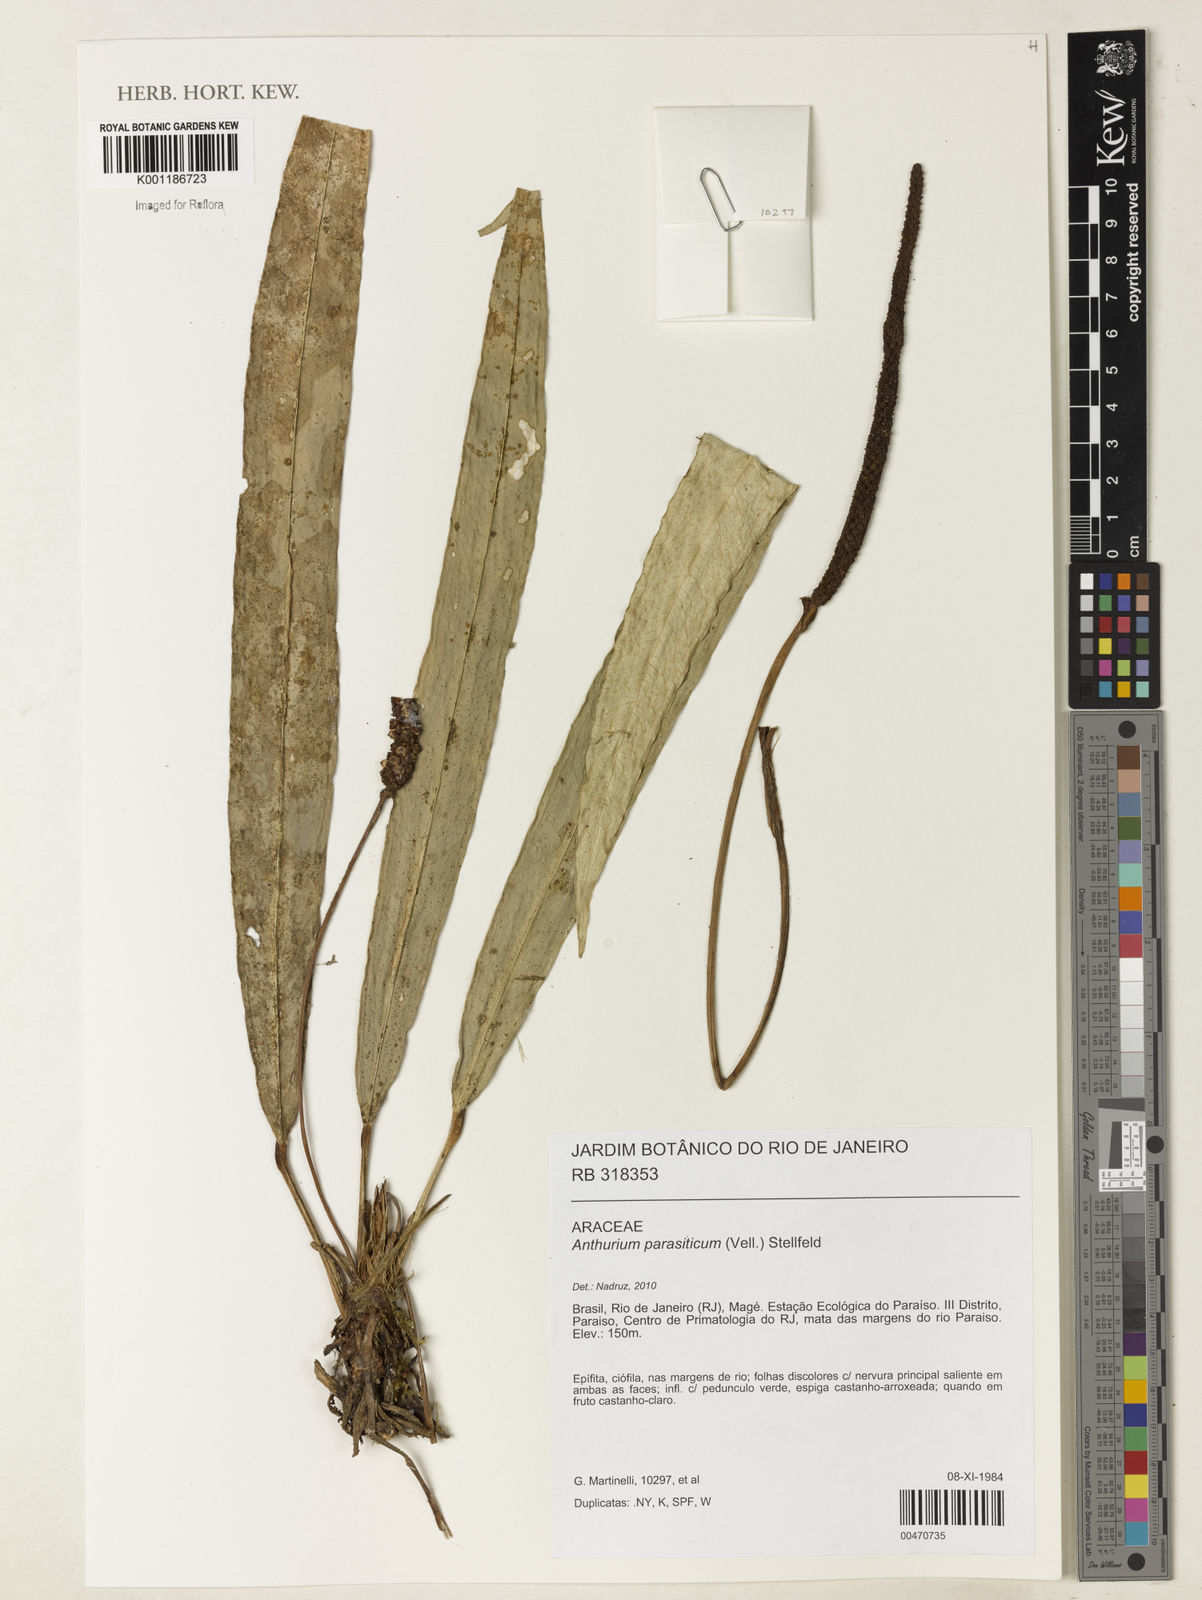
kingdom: Plantae
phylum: Tracheophyta
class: Liliopsida
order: Alismatales
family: Araceae
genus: Anthurium
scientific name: Anthurium parasiticum
